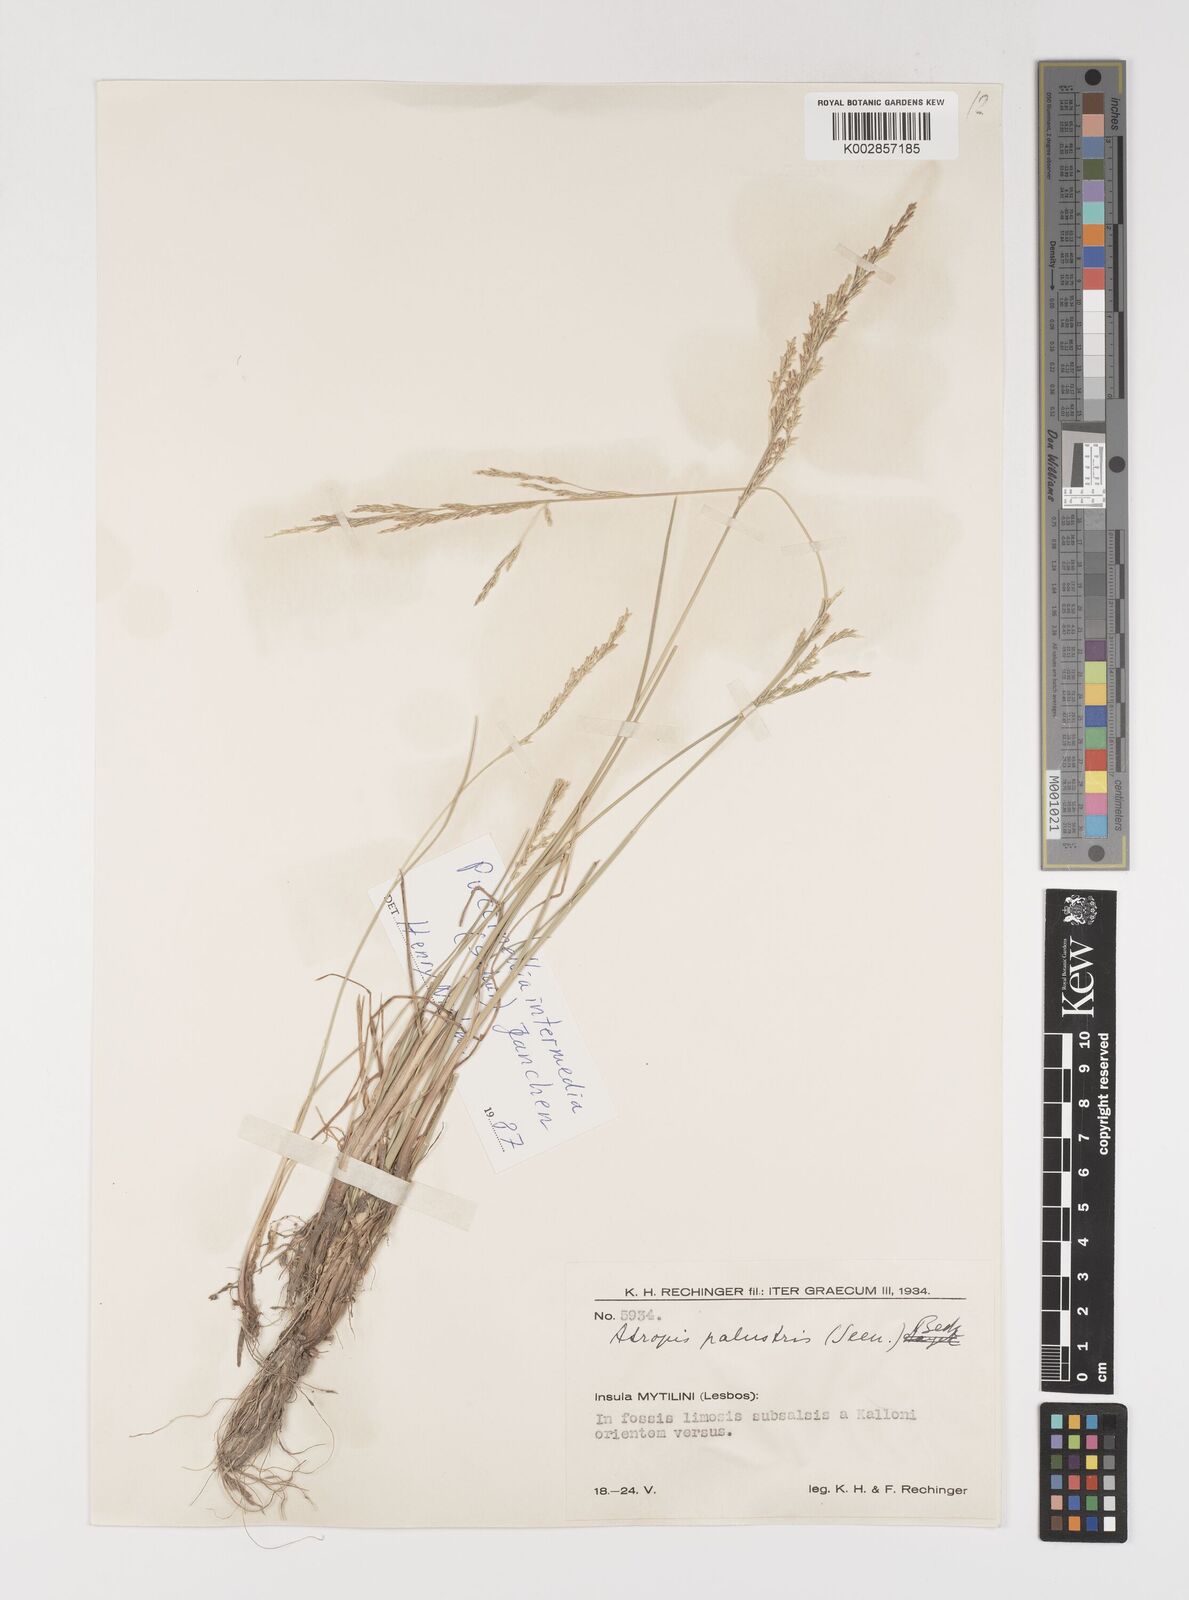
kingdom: Plantae
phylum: Tracheophyta
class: Liliopsida
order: Poales
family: Poaceae
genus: Puccinellia
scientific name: Puccinellia intermedia
